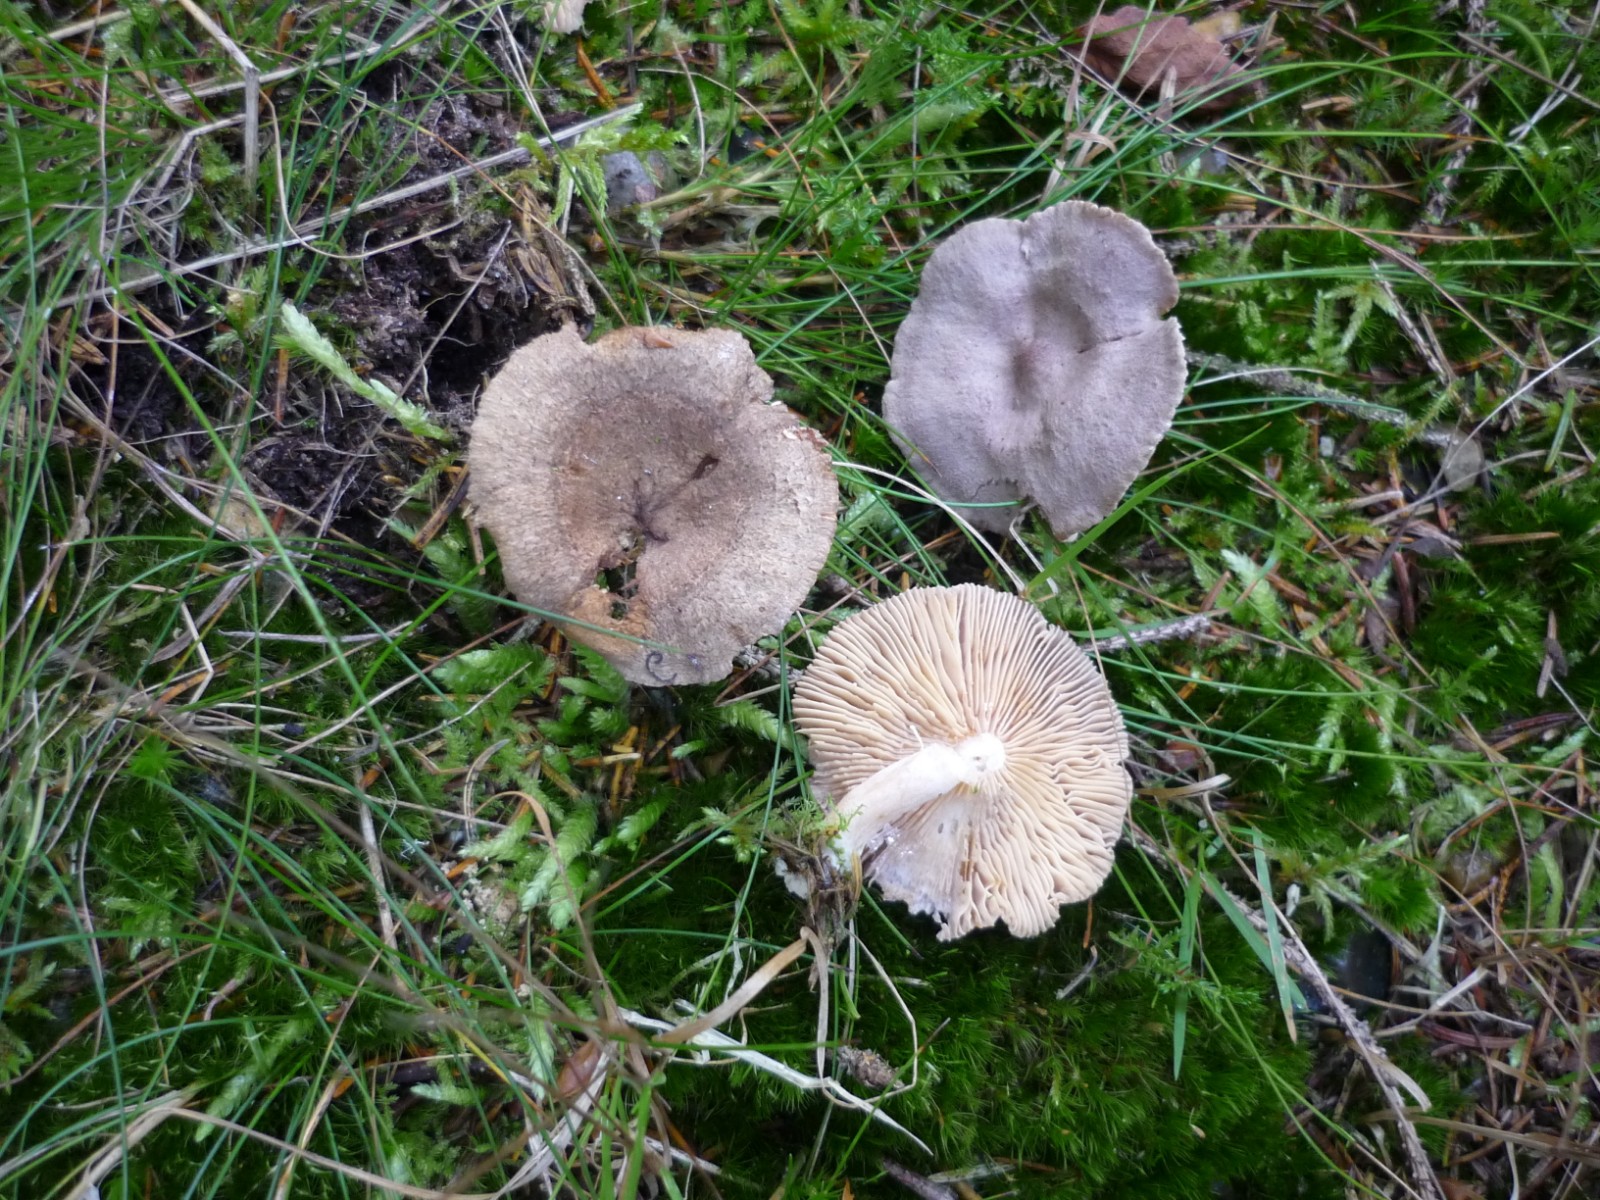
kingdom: Fungi
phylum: Basidiomycota
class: Agaricomycetes
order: Russulales
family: Russulaceae
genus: Lactarius
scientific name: Lactarius mammosus
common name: kokosbrun mælkehat
